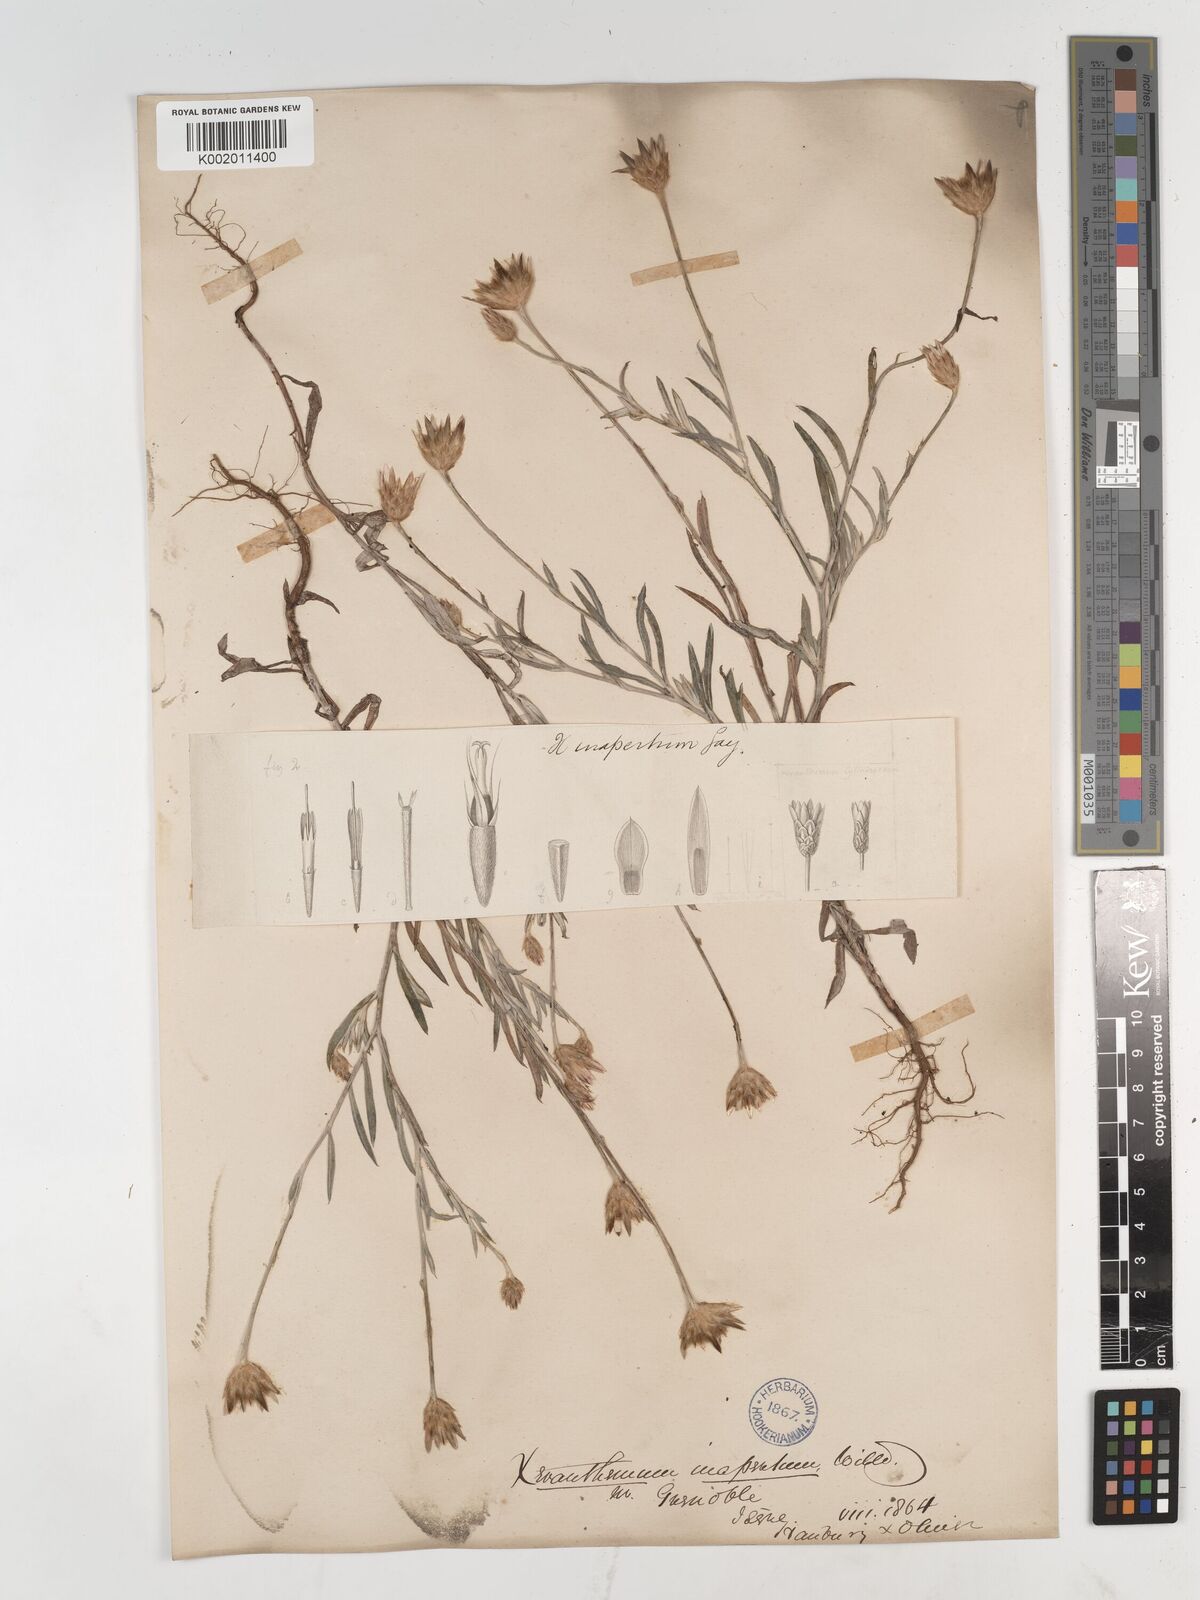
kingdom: Plantae
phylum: Tracheophyta
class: Magnoliopsida
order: Asterales
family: Asteraceae
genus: Xeranthemum
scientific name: Xeranthemum inapertum
